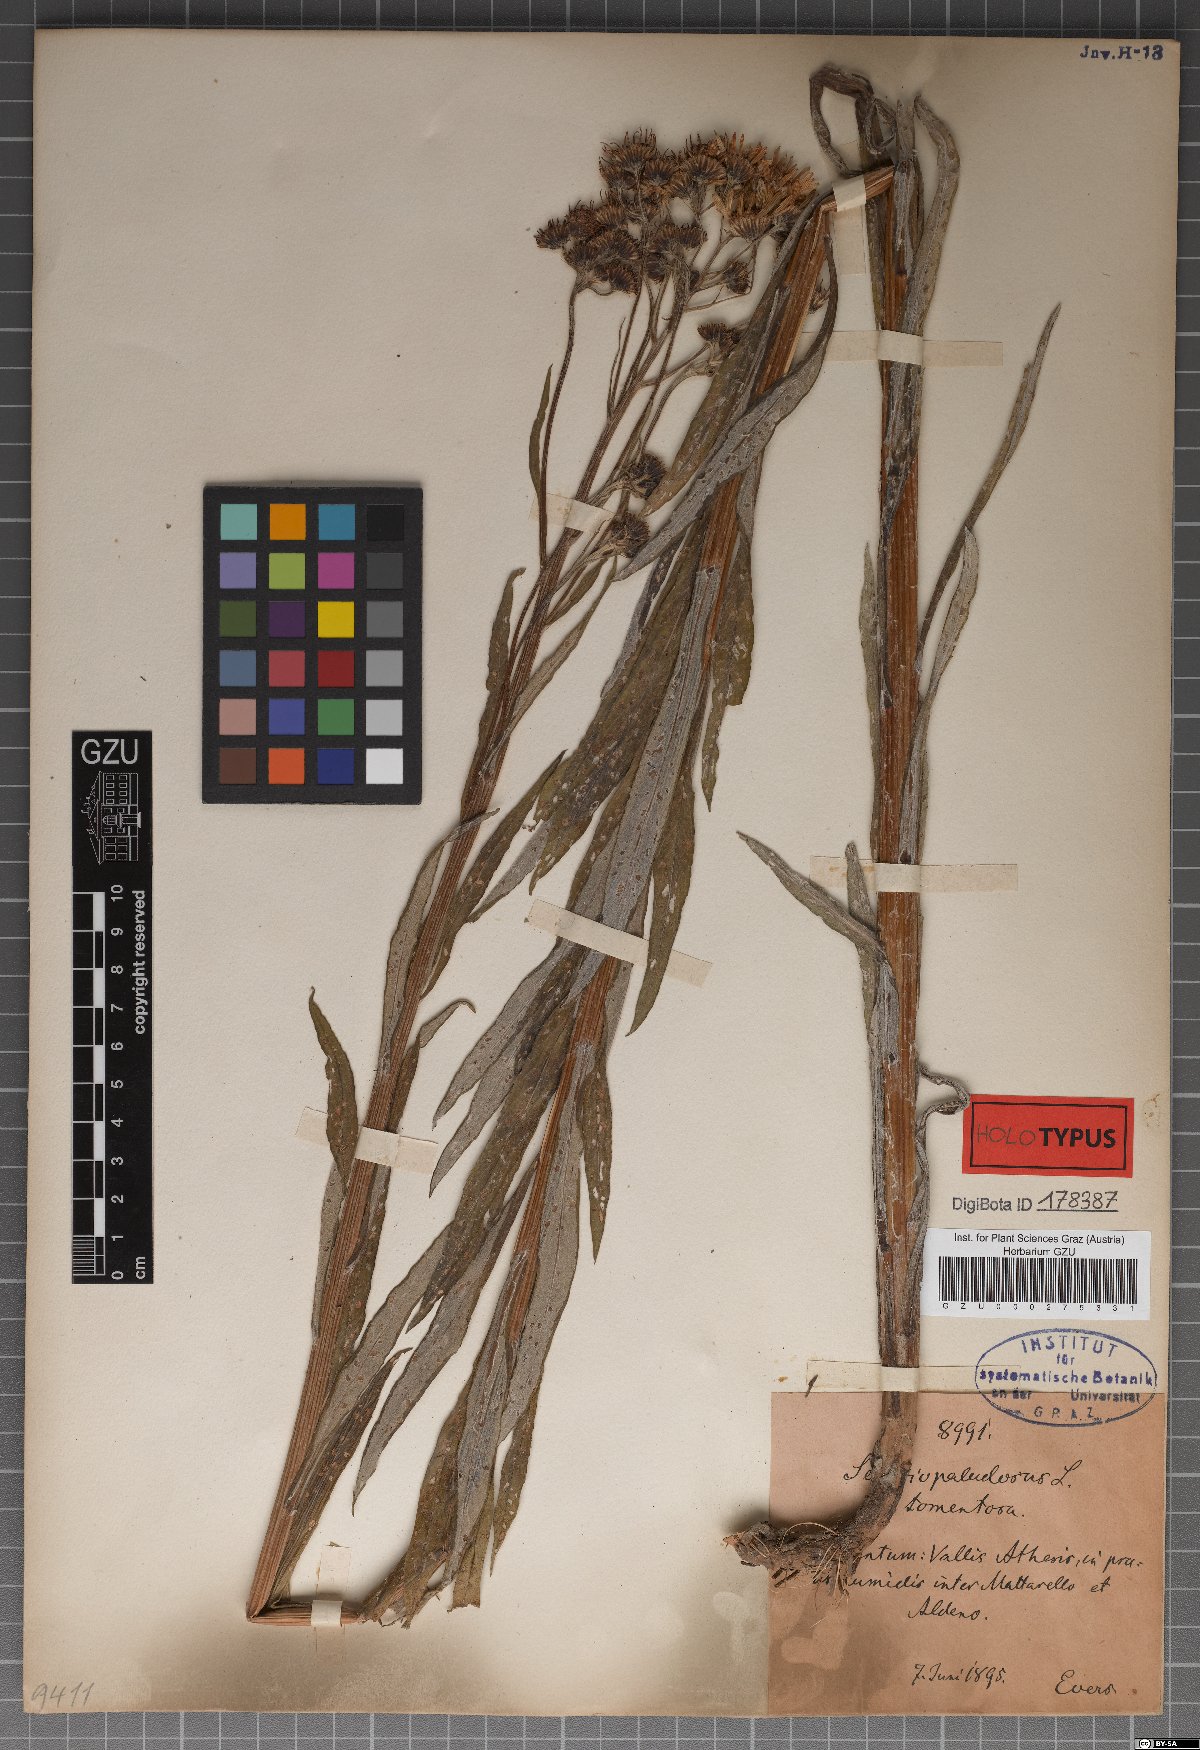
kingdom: Plantae
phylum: Tracheophyta
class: Magnoliopsida
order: Asterales
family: Asteraceae
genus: Jacobaea
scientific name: Jacobaea paludosa
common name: Fen ragwort
